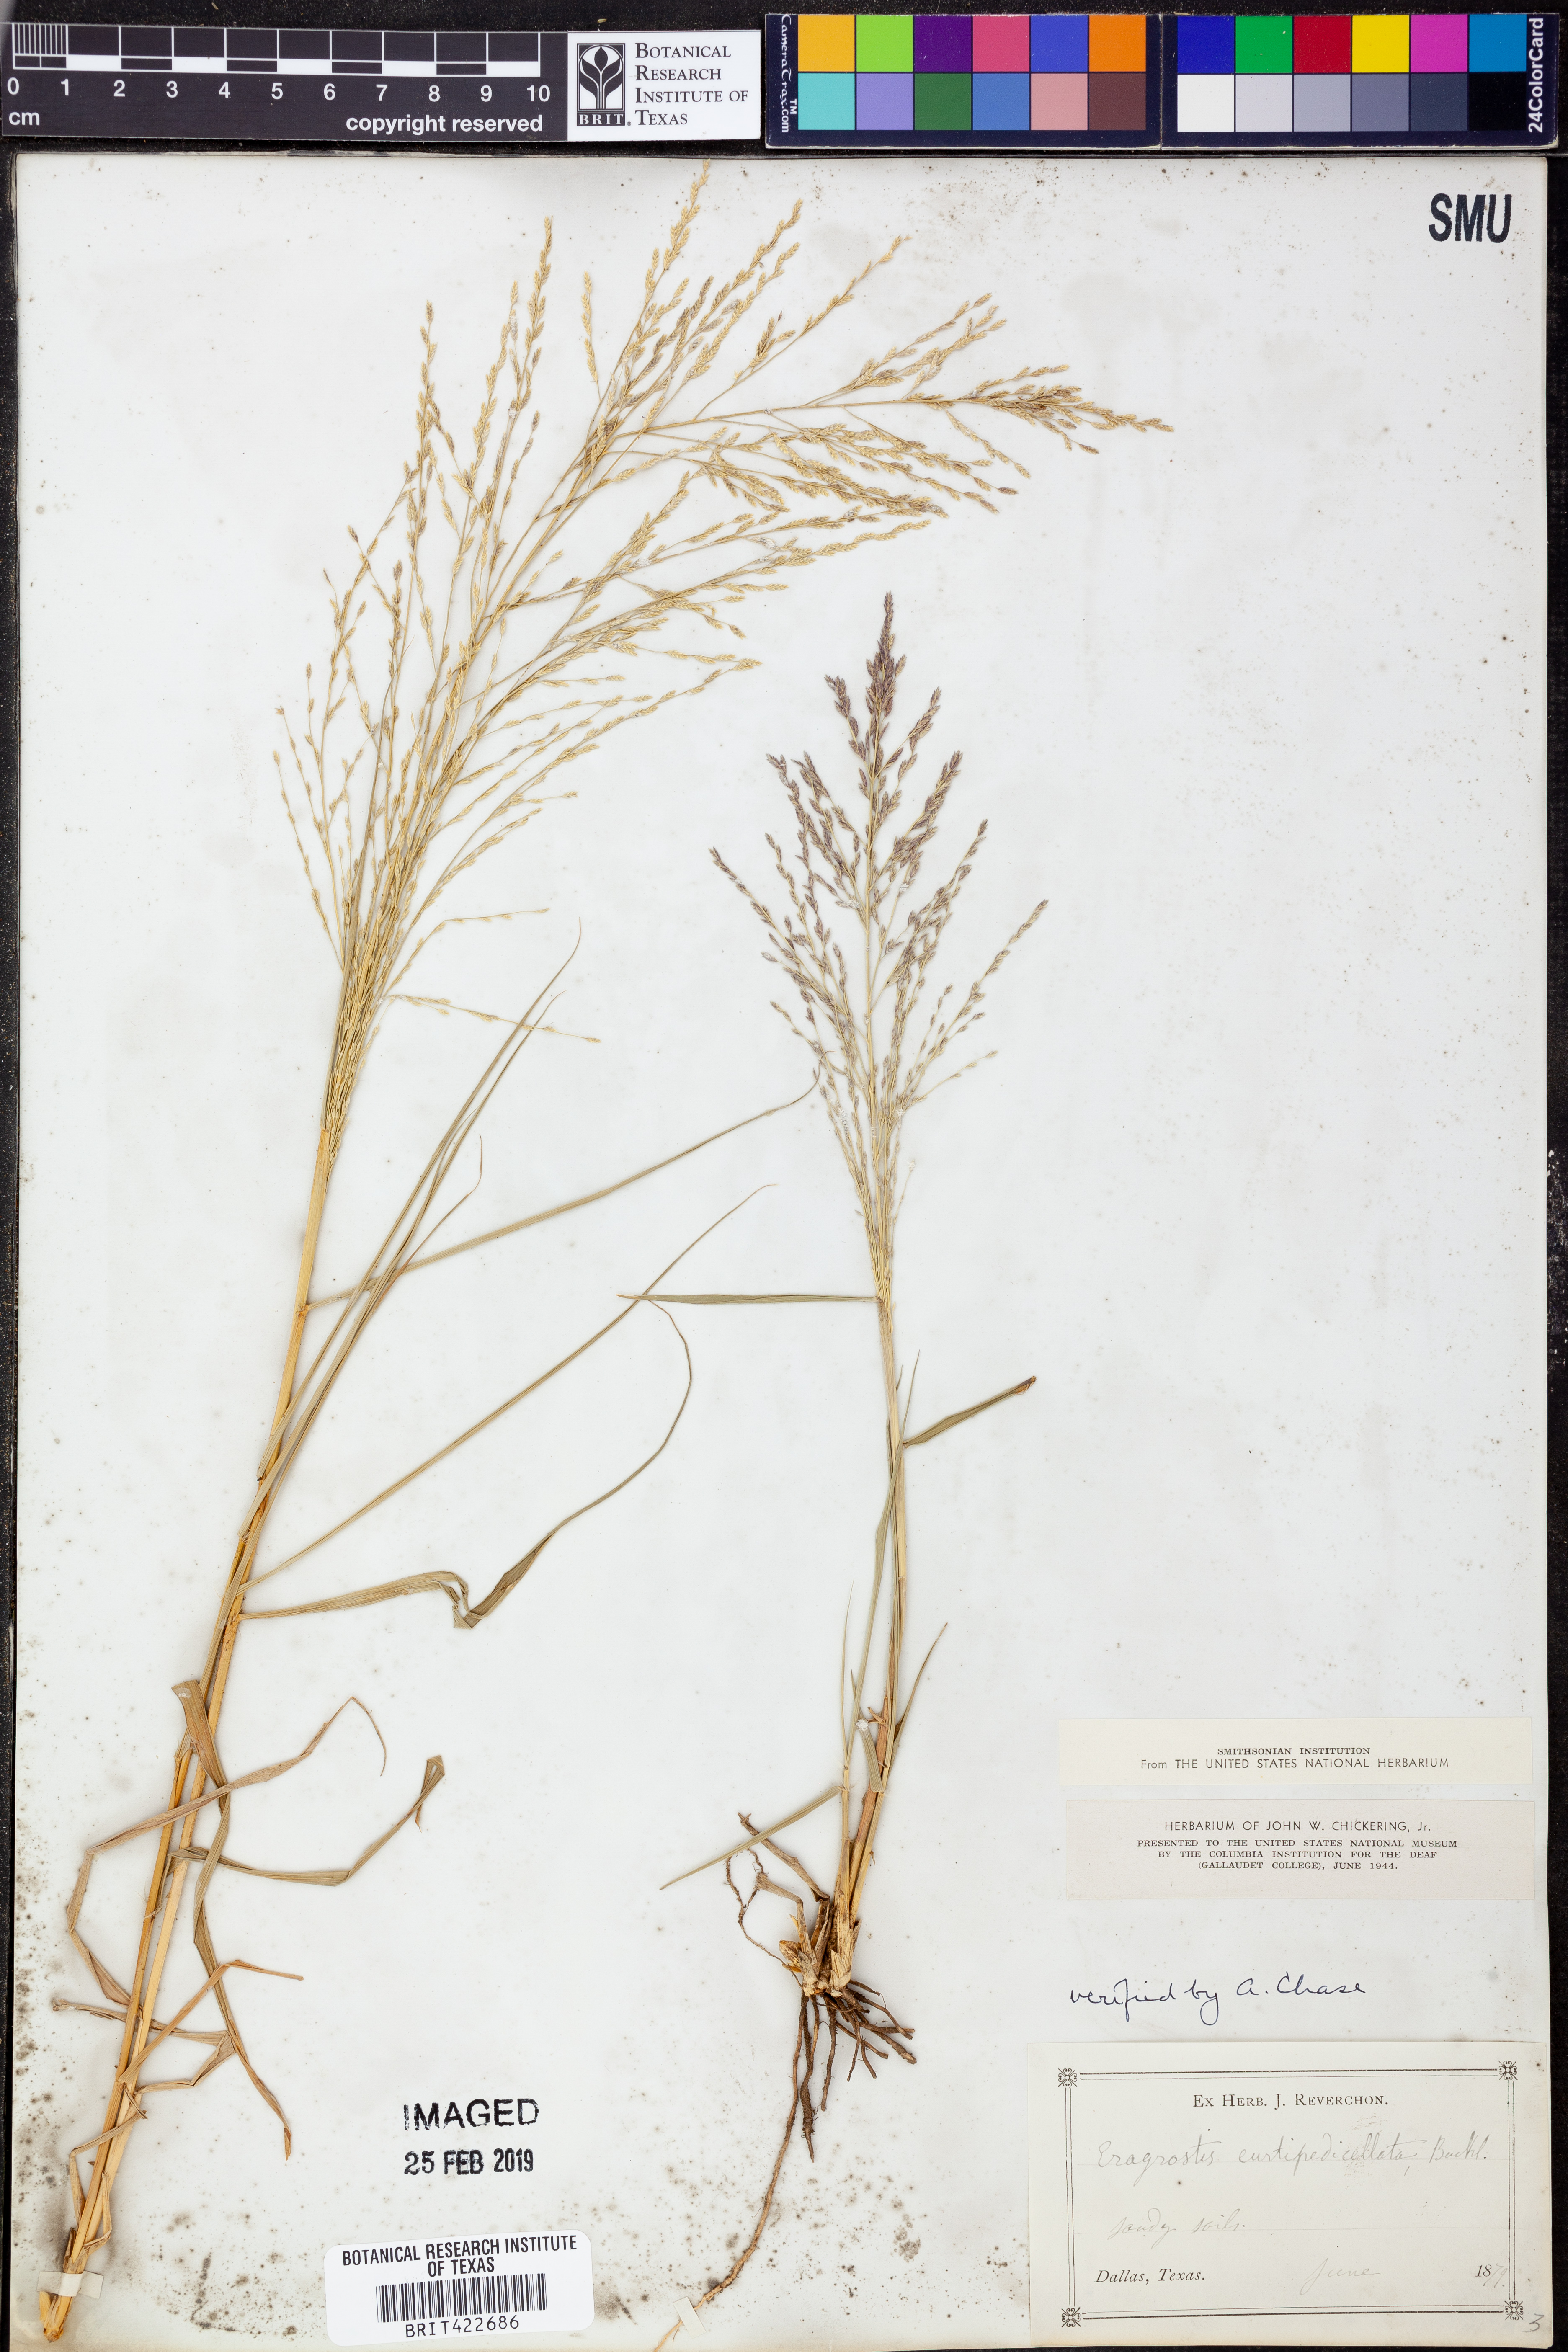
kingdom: Plantae
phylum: Tracheophyta
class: Liliopsida
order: Poales
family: Poaceae
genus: Eragrostis
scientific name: Eragrostis curtipedicellata
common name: Gummy love grass
